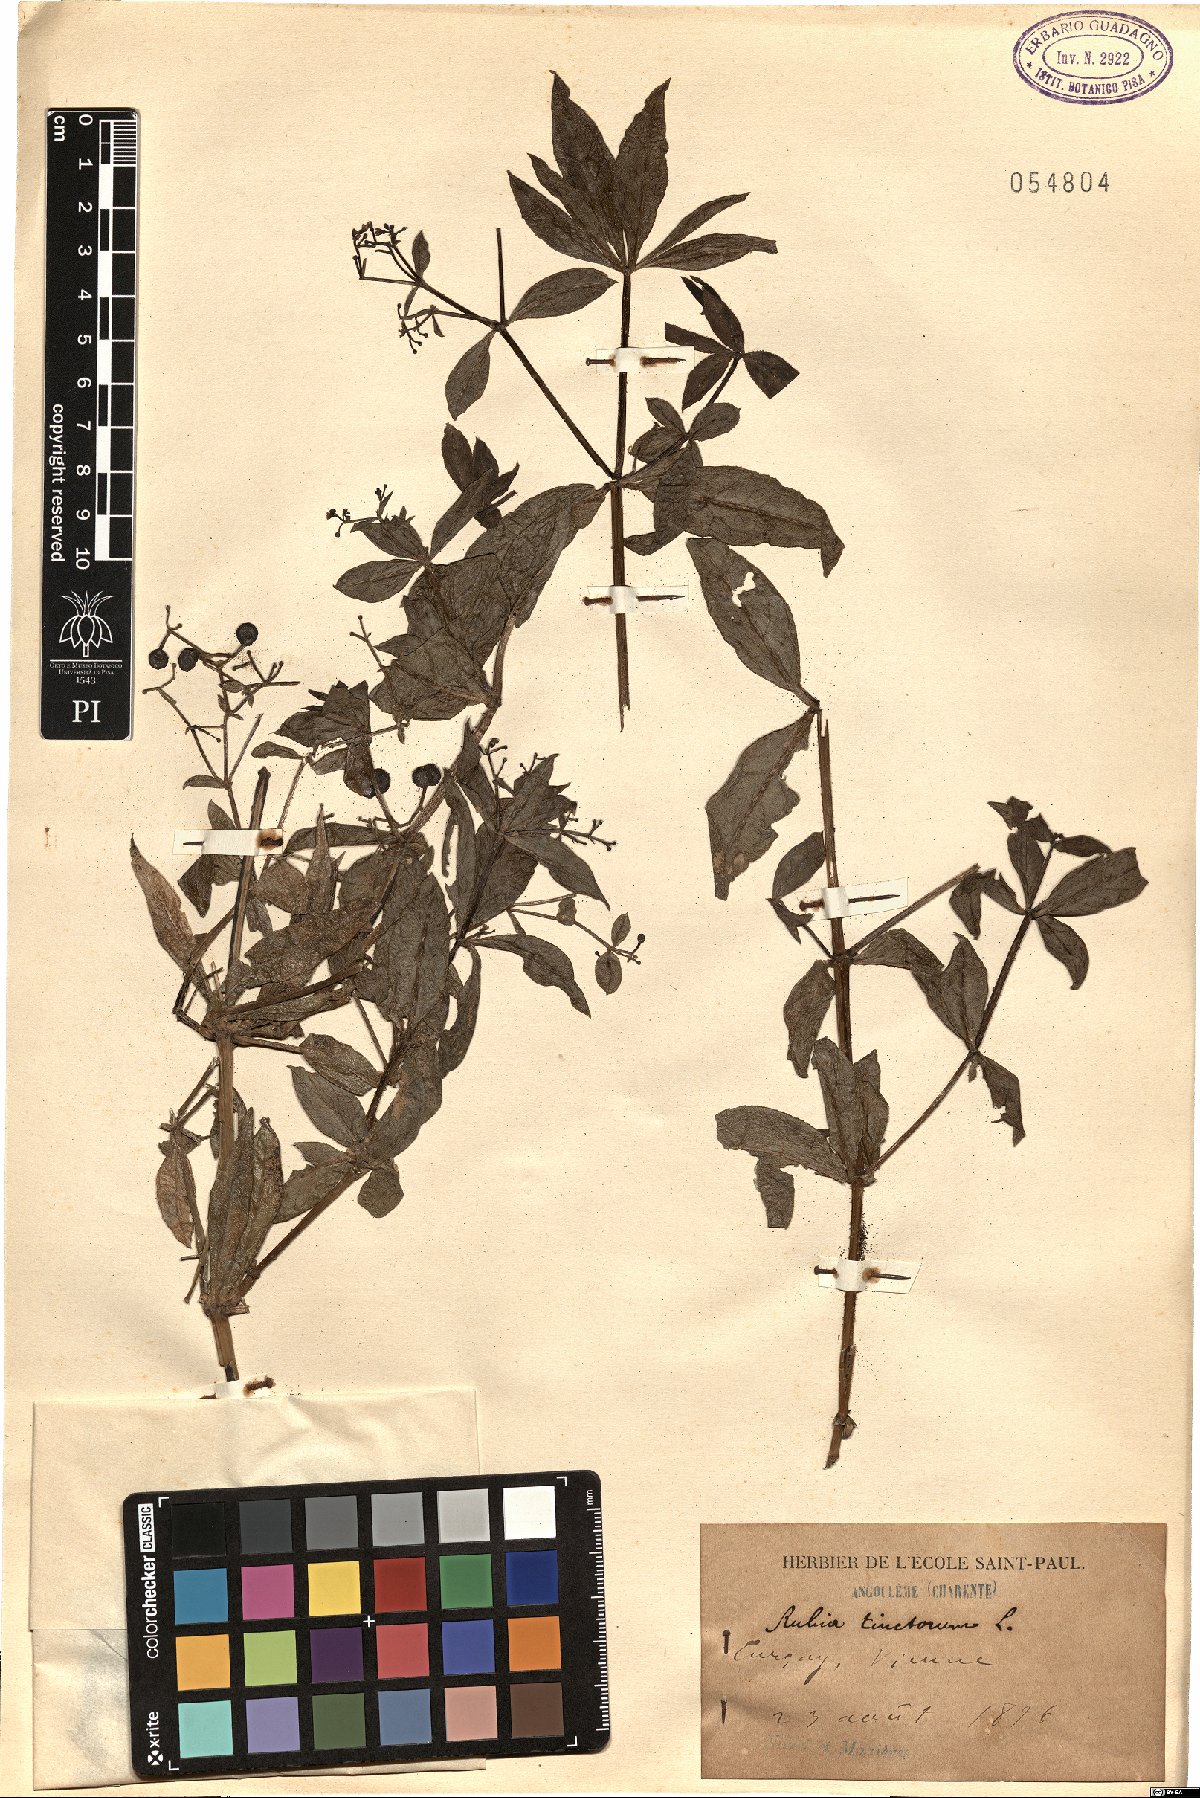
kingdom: Plantae
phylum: Tracheophyta
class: Magnoliopsida
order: Gentianales
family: Rubiaceae
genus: Rubia
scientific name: Rubia tinctorum
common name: Dyer's madder
